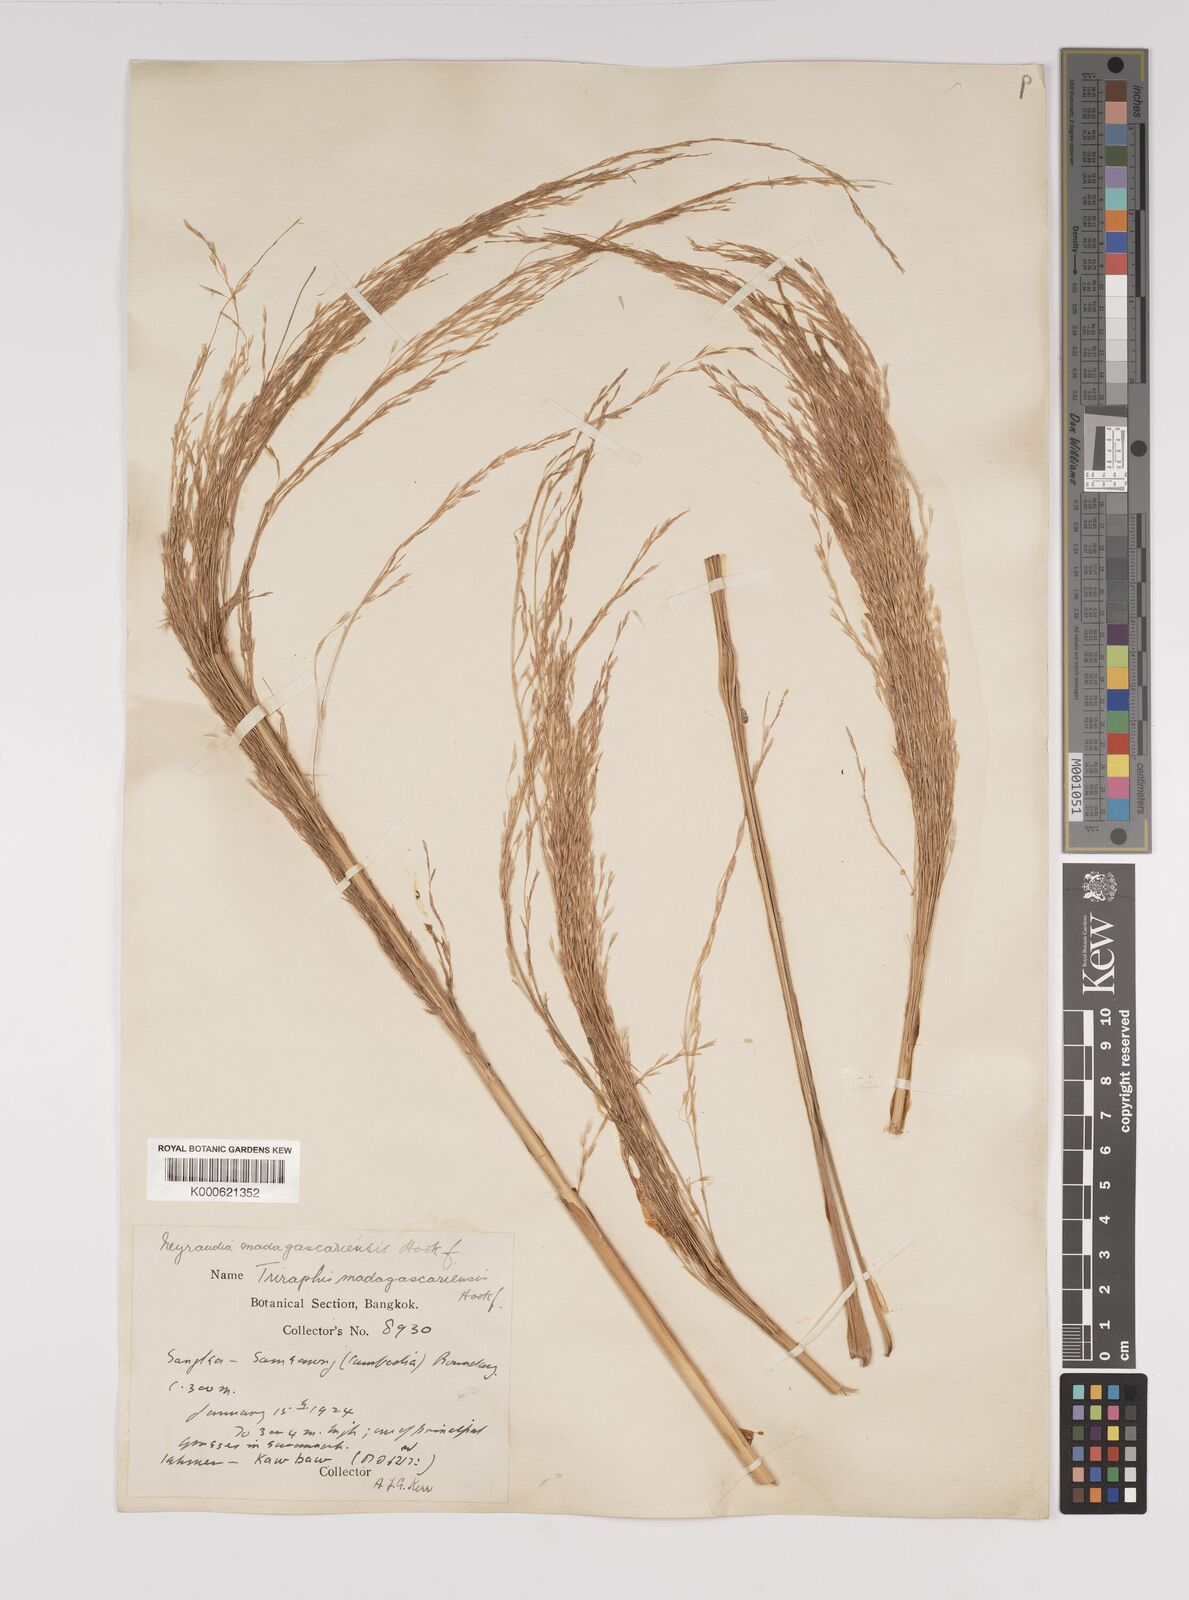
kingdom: Plantae
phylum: Tracheophyta
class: Liliopsida
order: Poales
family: Poaceae
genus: Neyraudia
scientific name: Neyraudia reynaudiana
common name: Silkreed
